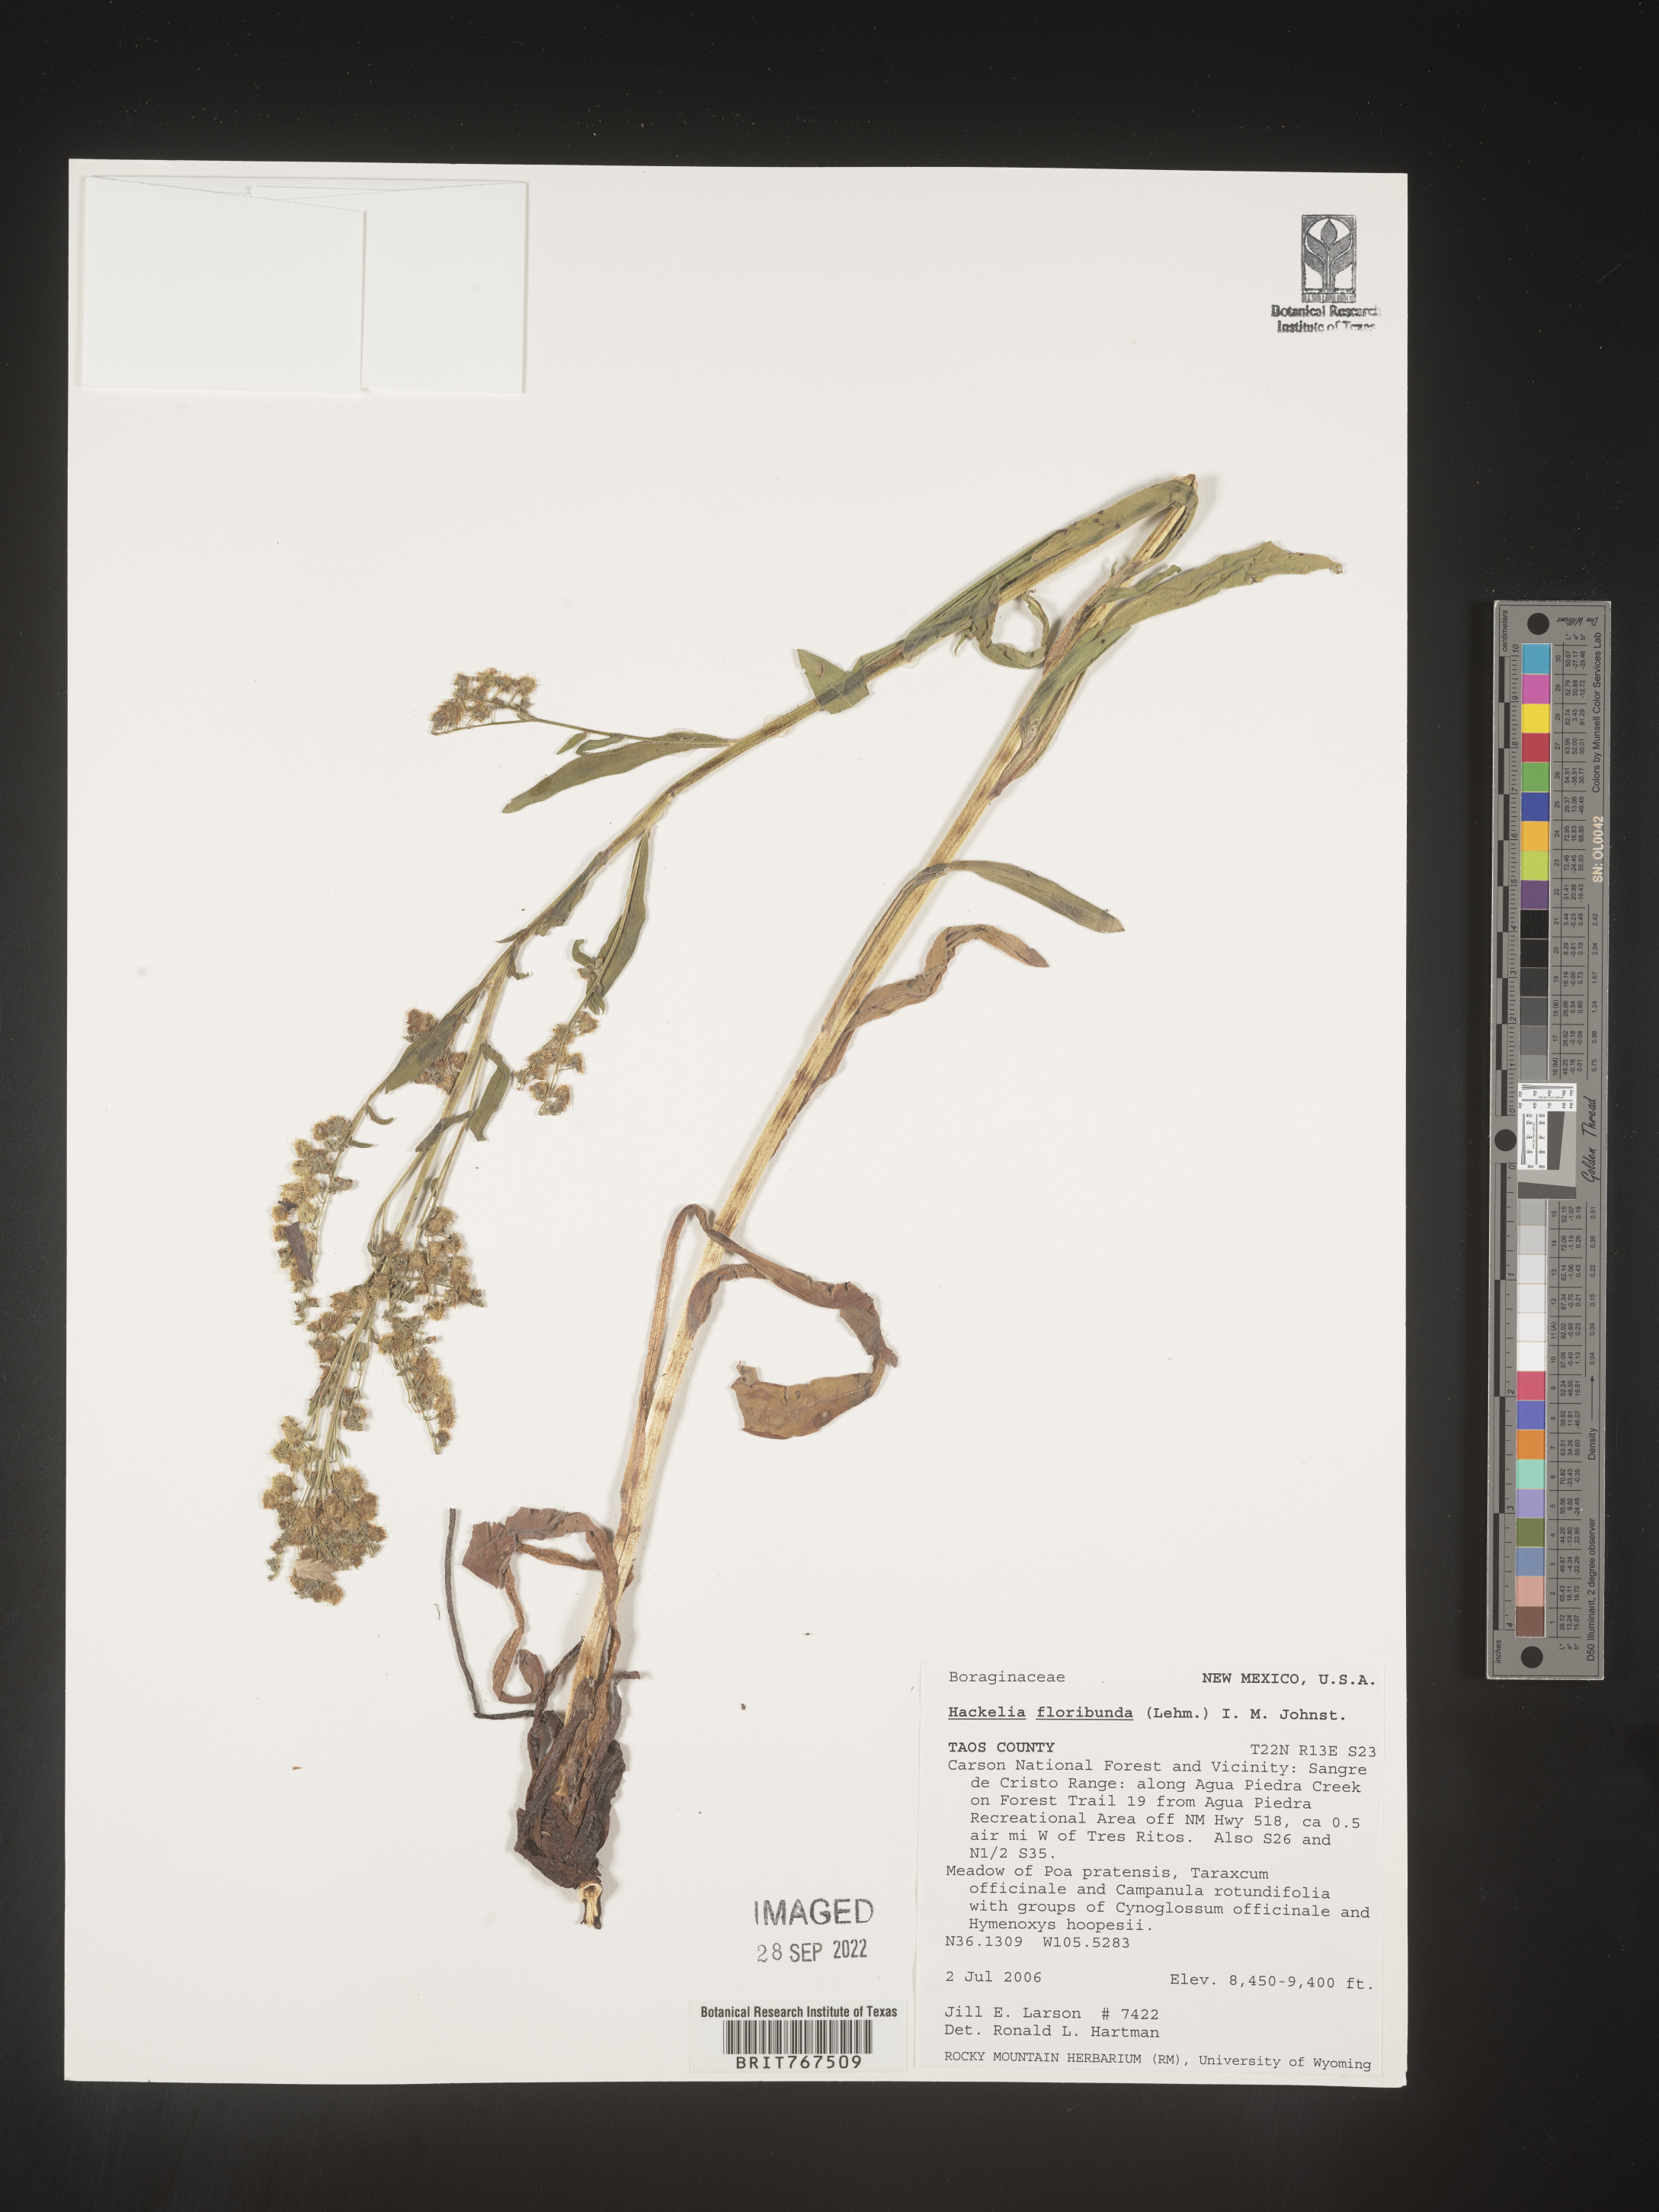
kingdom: Plantae
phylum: Tracheophyta
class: Magnoliopsida
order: Boraginales
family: Boraginaceae
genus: Hackelia
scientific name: Hackelia floribunda
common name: Large-flowered stickseed
